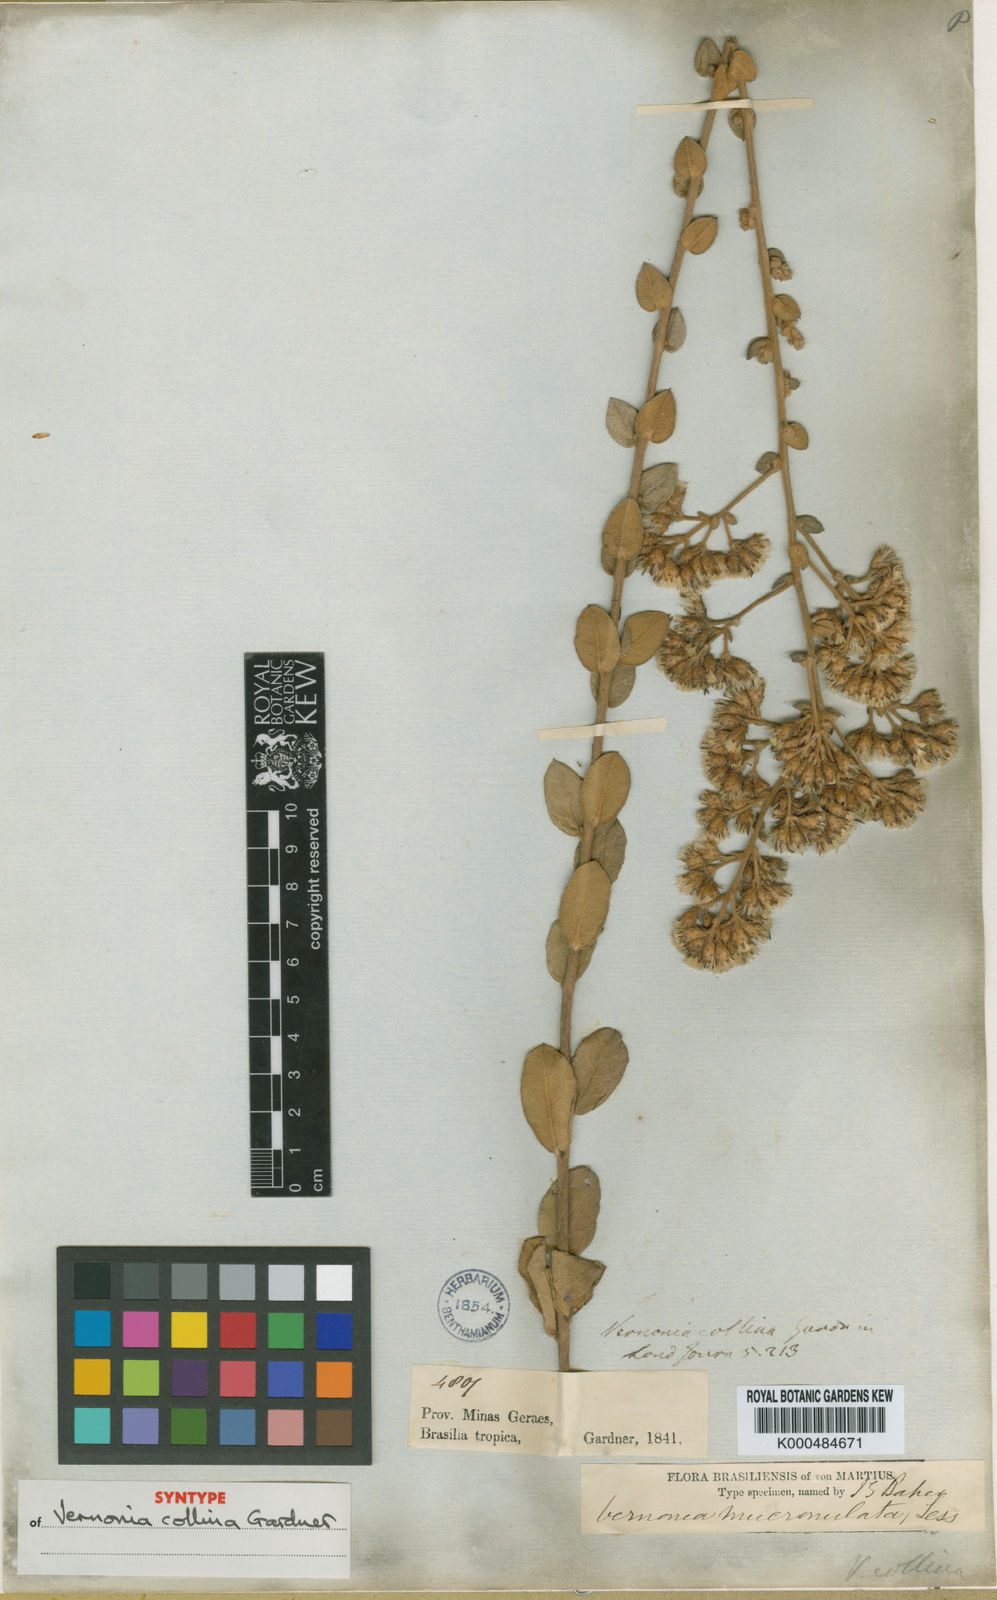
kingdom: Plantae
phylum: Tracheophyta
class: Magnoliopsida
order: Asterales
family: Asteraceae
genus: Vernonanthura
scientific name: Vernonanthura mucronulata
